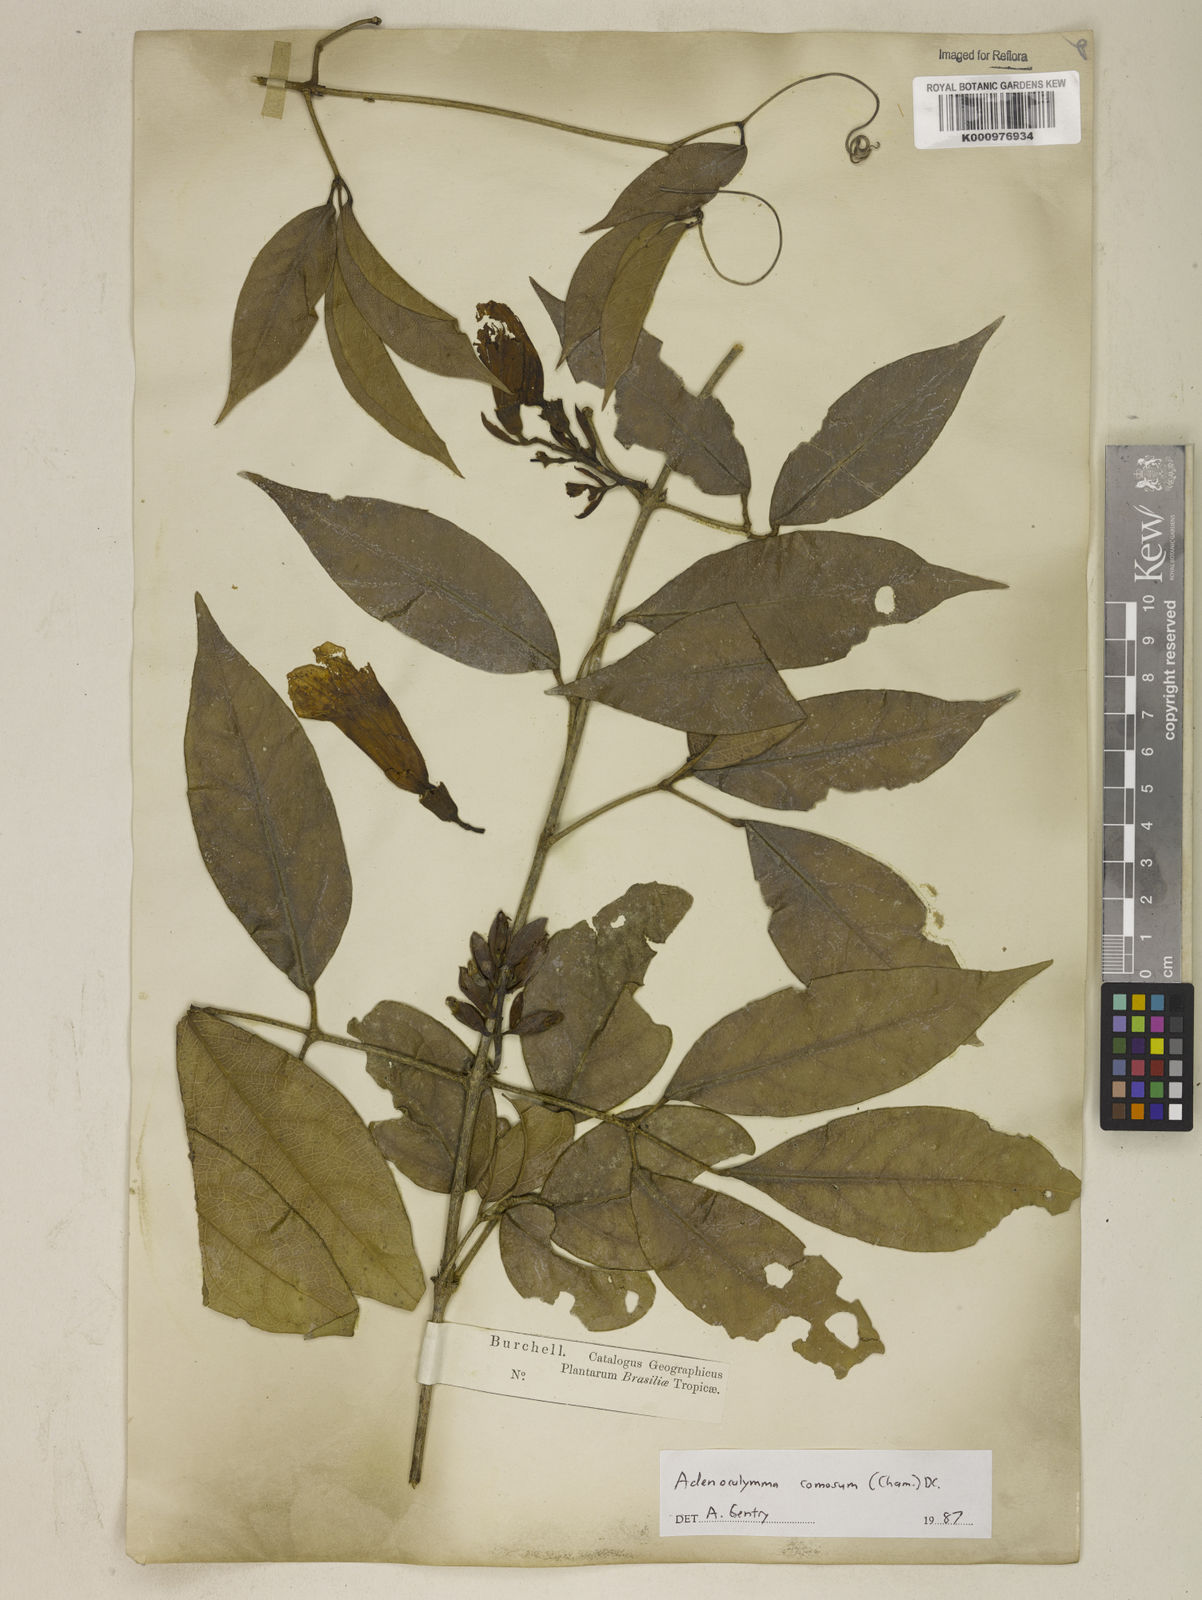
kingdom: Plantae
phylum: Tracheophyta
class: Magnoliopsida
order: Lamiales
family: Bignoniaceae
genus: Adenocalymma
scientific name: Adenocalymma acutissimum
